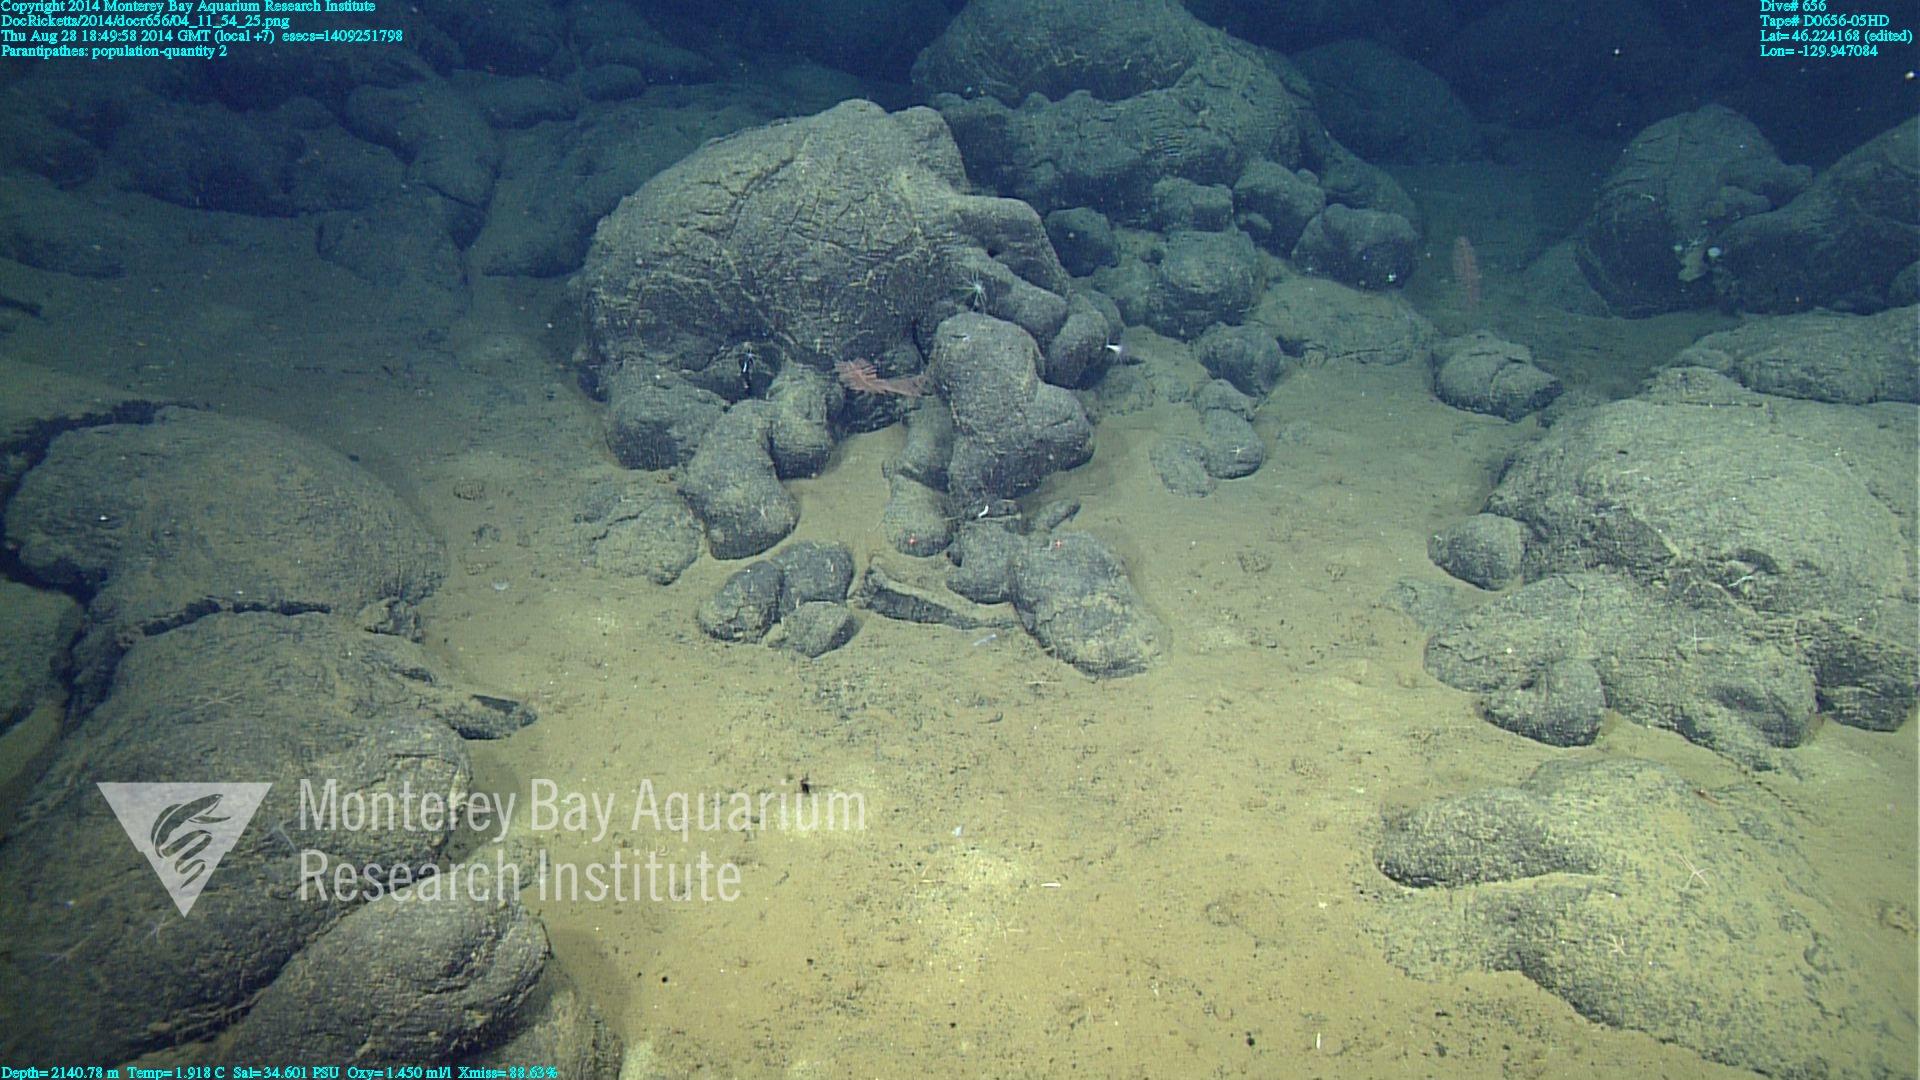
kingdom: Animalia
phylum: Cnidaria
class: Anthozoa
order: Antipatharia
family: Schizopathidae
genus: Parantipathes
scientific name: Parantipathes
